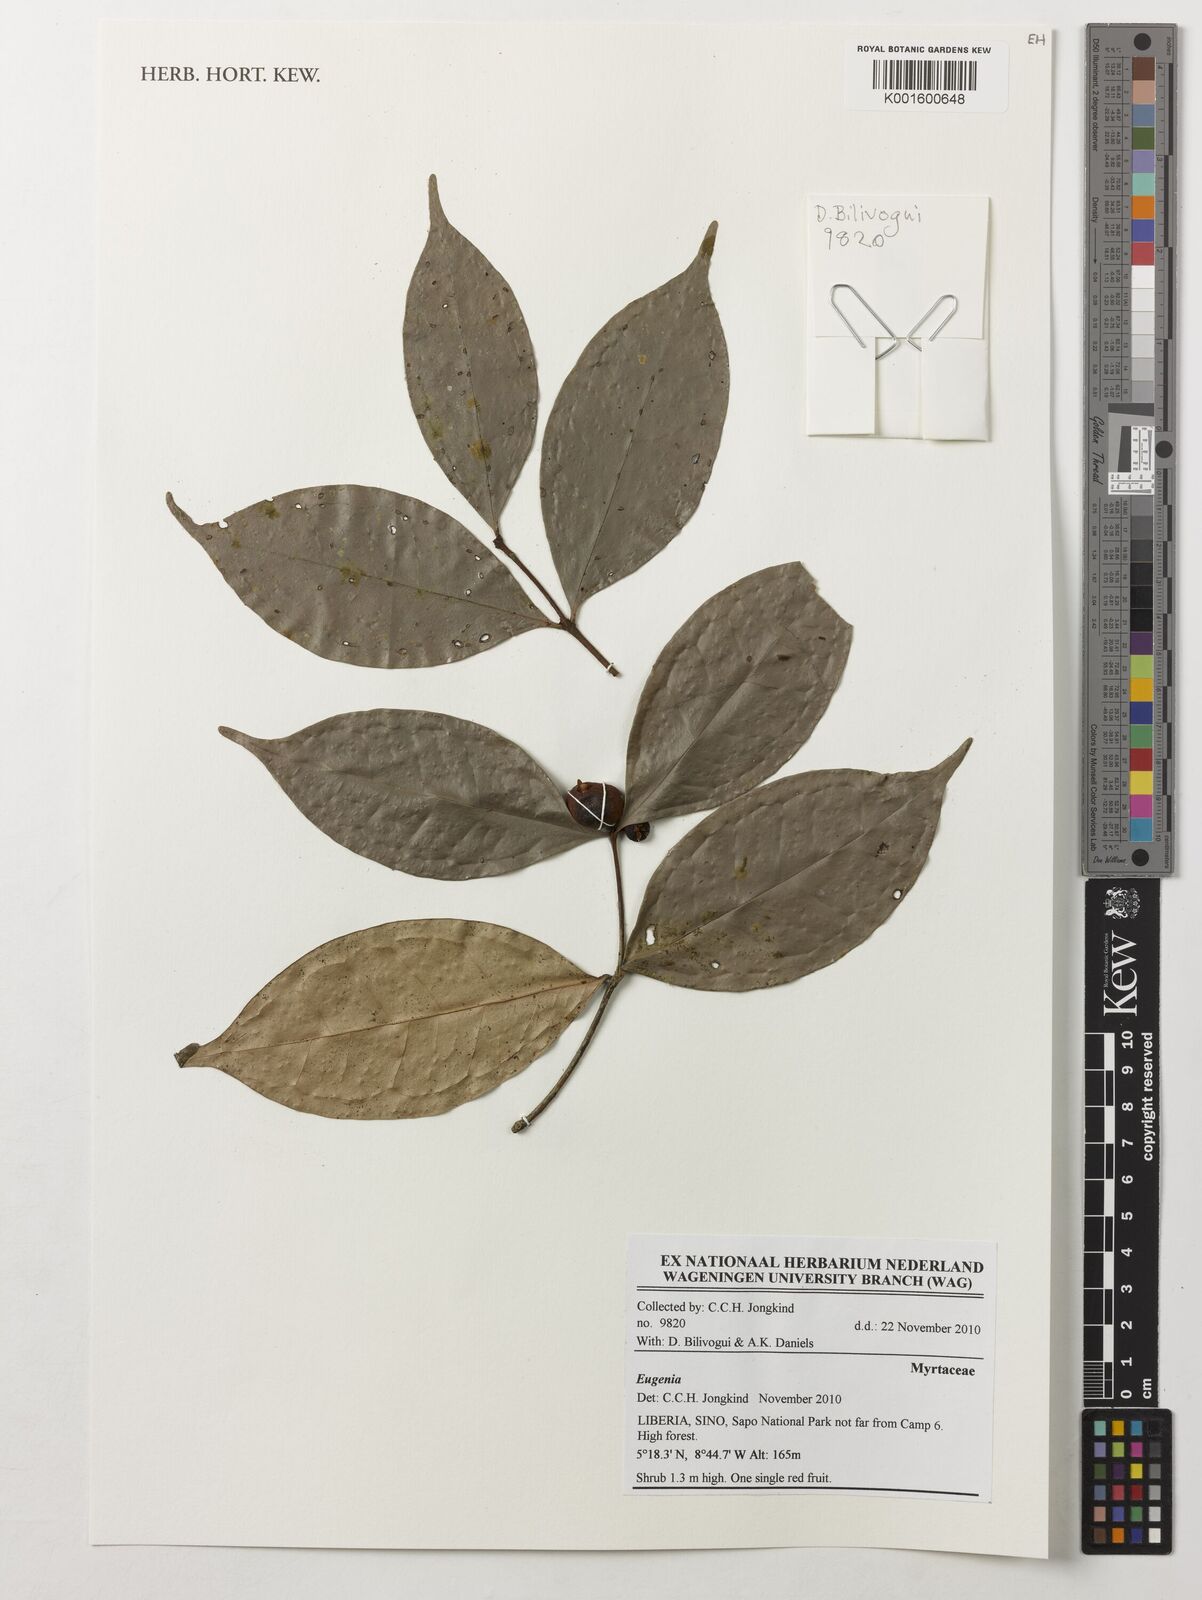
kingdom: Plantae
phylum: Tracheophyta
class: Magnoliopsida
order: Myrtales
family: Myrtaceae
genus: Eugenia
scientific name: Eugenia
